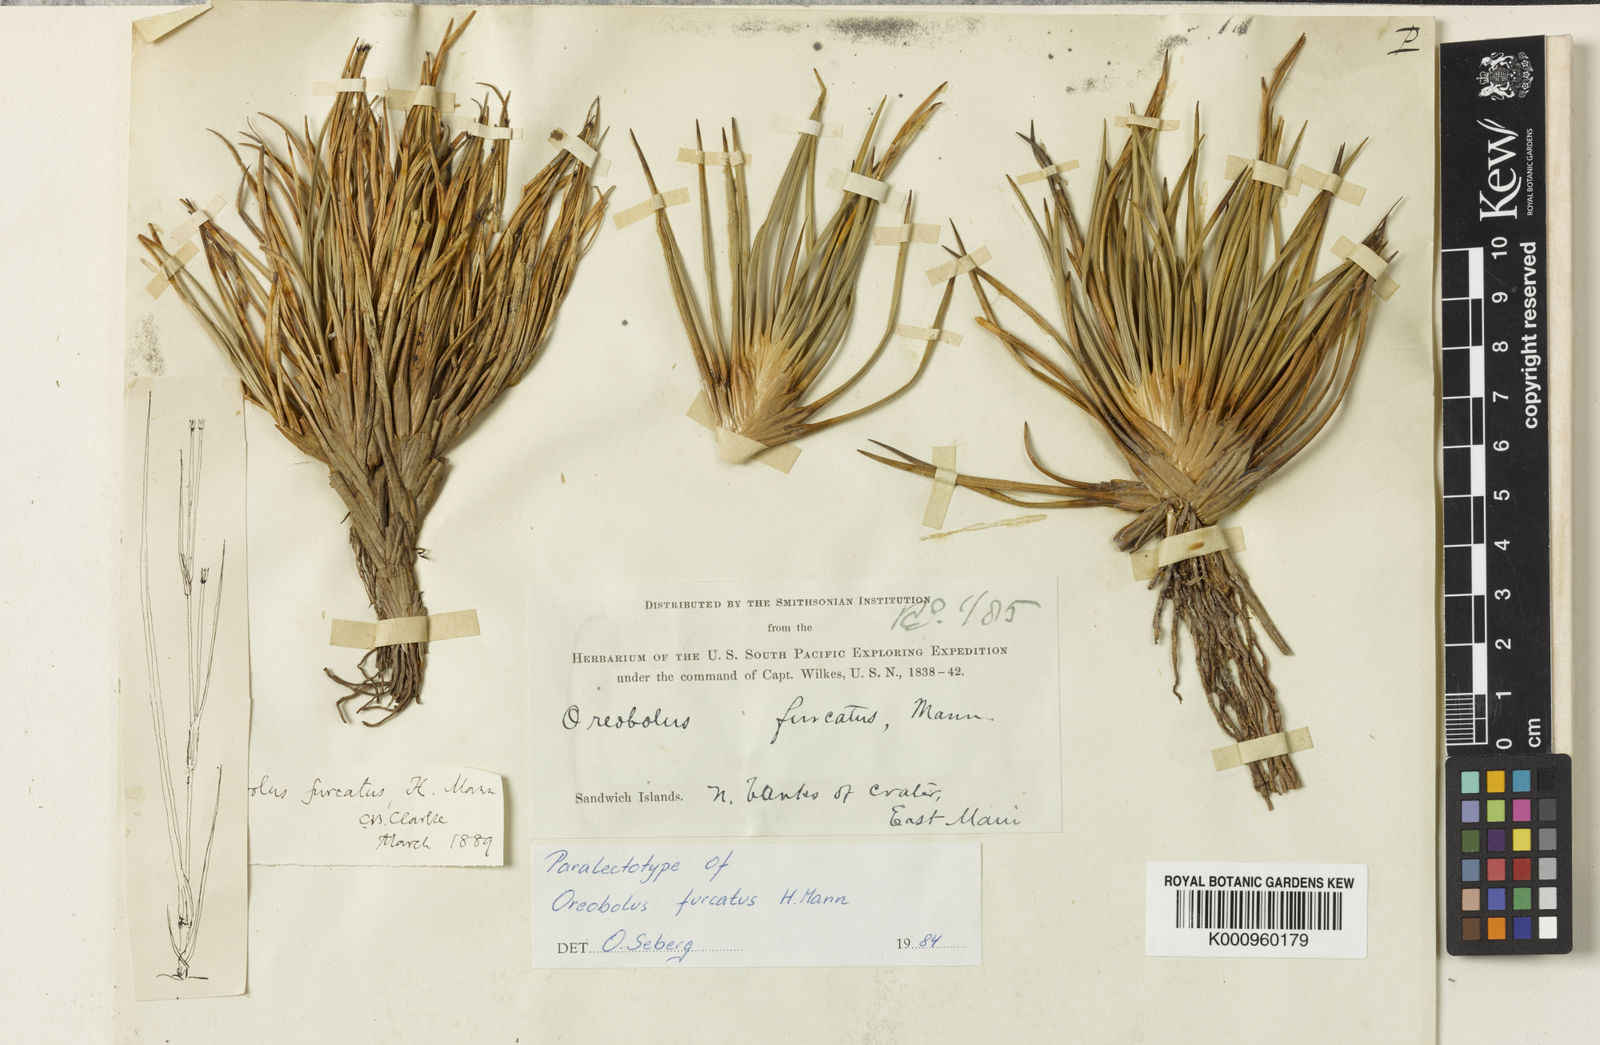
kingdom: Plantae
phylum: Tracheophyta
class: Liliopsida
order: Poales
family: Cyperaceae
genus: Oreobolus
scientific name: Oreobolus furcatus
